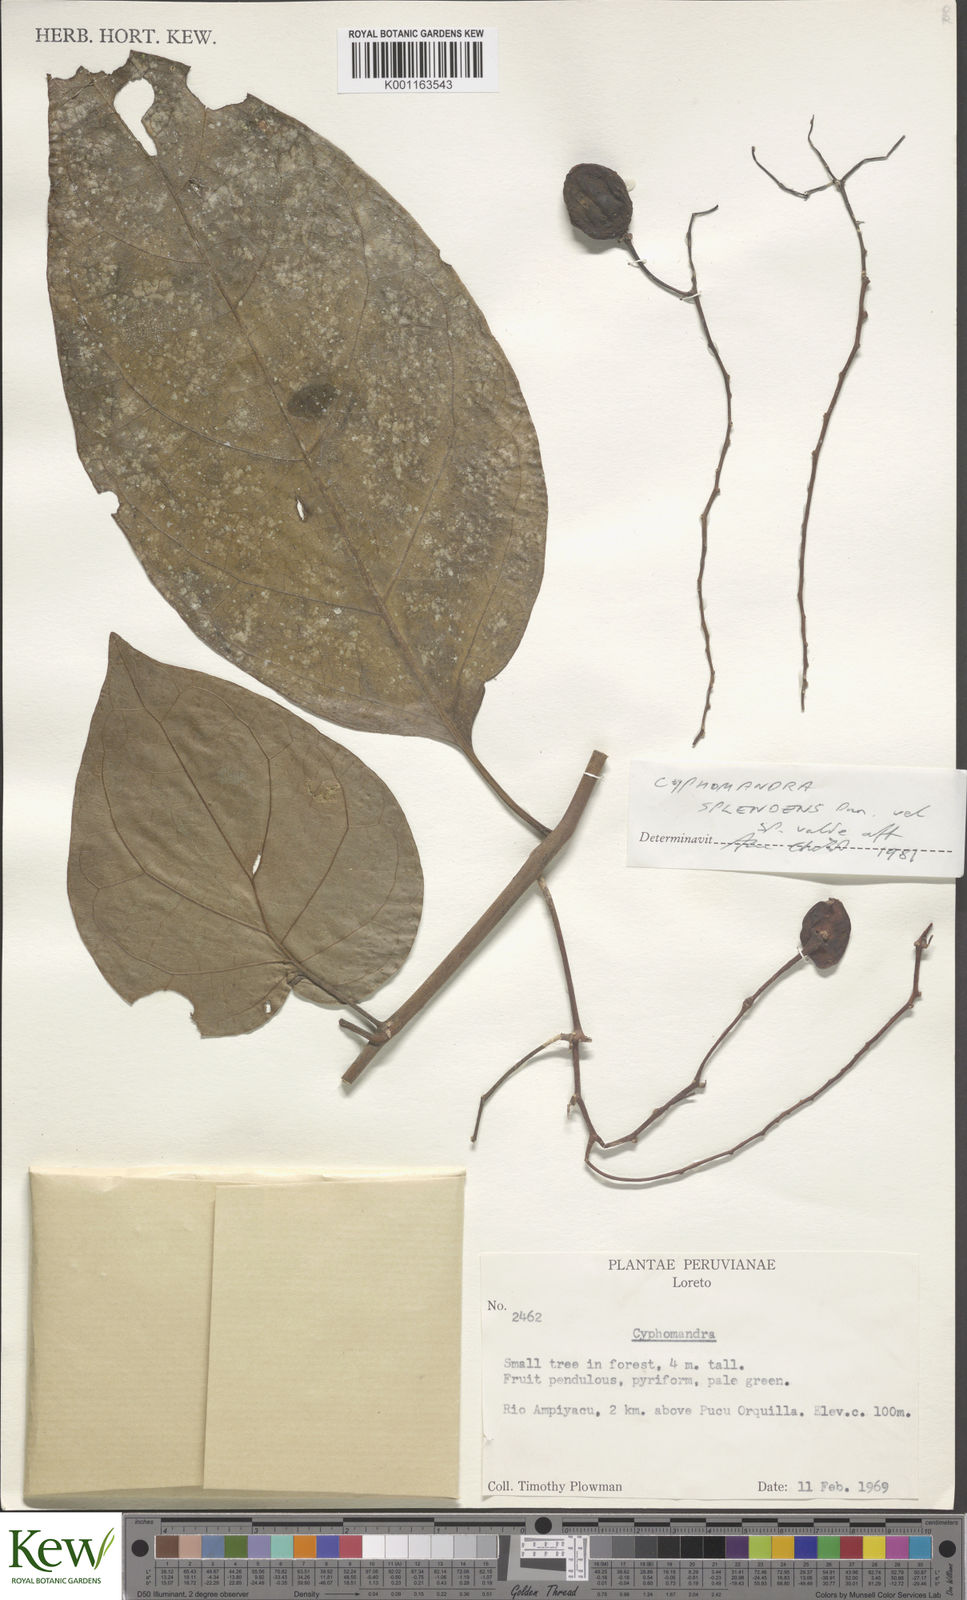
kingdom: Plantae
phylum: Tracheophyta
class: Magnoliopsida
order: Solanales
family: Solanaceae
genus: Solanum
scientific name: Solanum splendens
